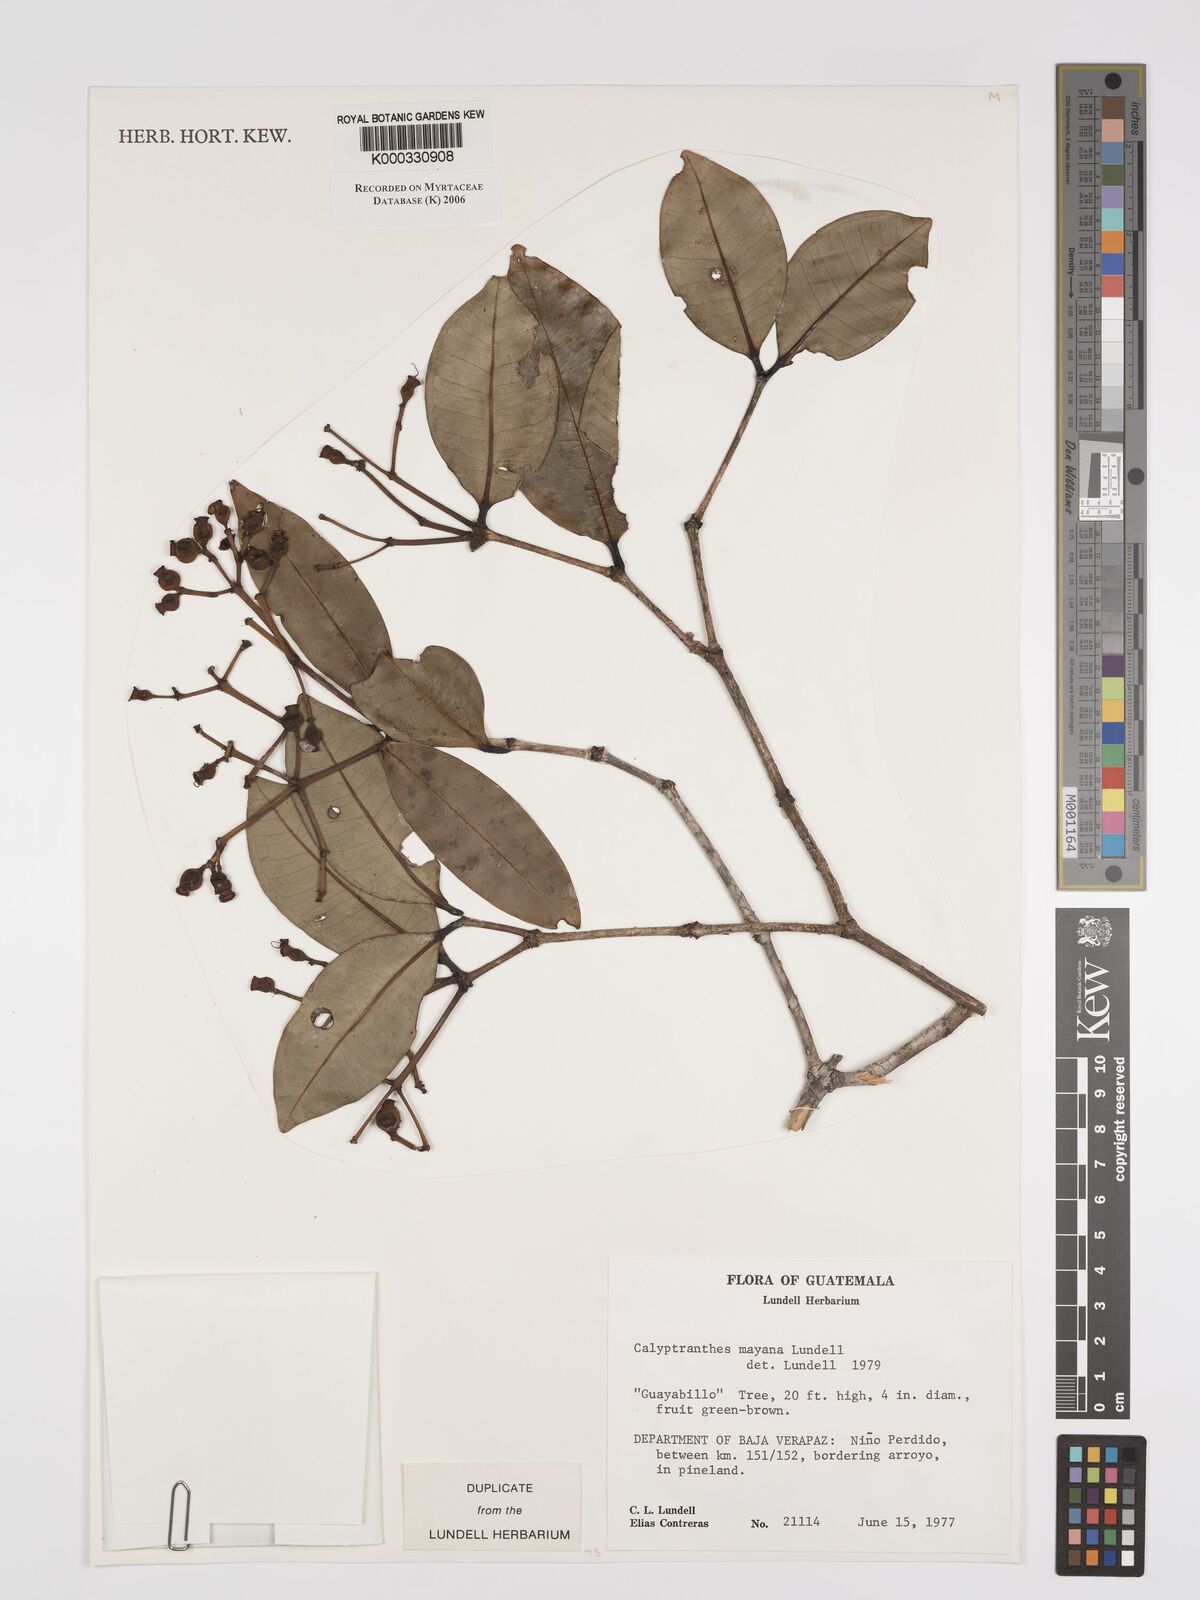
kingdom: Plantae
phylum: Tracheophyta
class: Magnoliopsida
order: Myrtales
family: Myrtaceae
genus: Myrcia
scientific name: Myrcia mayana
